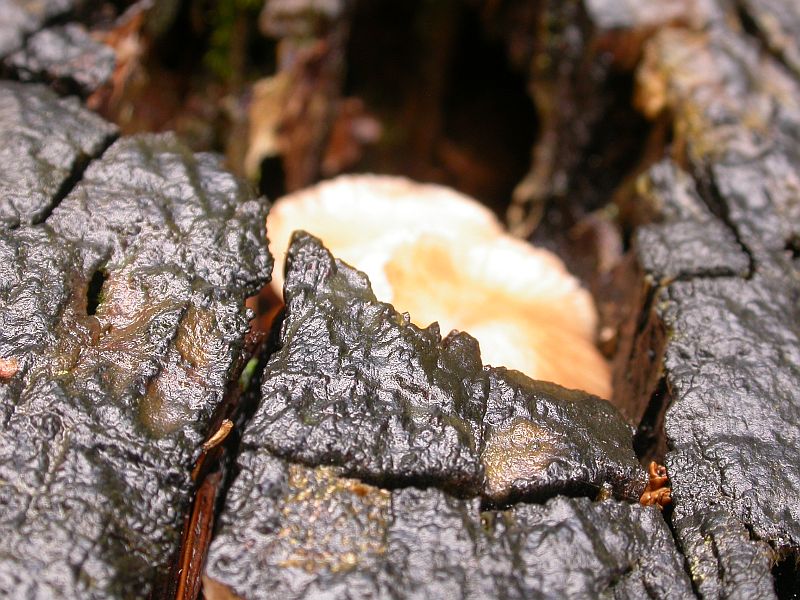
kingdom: Fungi
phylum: Basidiomycota
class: Agaricomycetes
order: Agaricales
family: Omphalotaceae
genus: Gymnopus
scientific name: Gymnopus inodorus
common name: lugtløs fladhat
